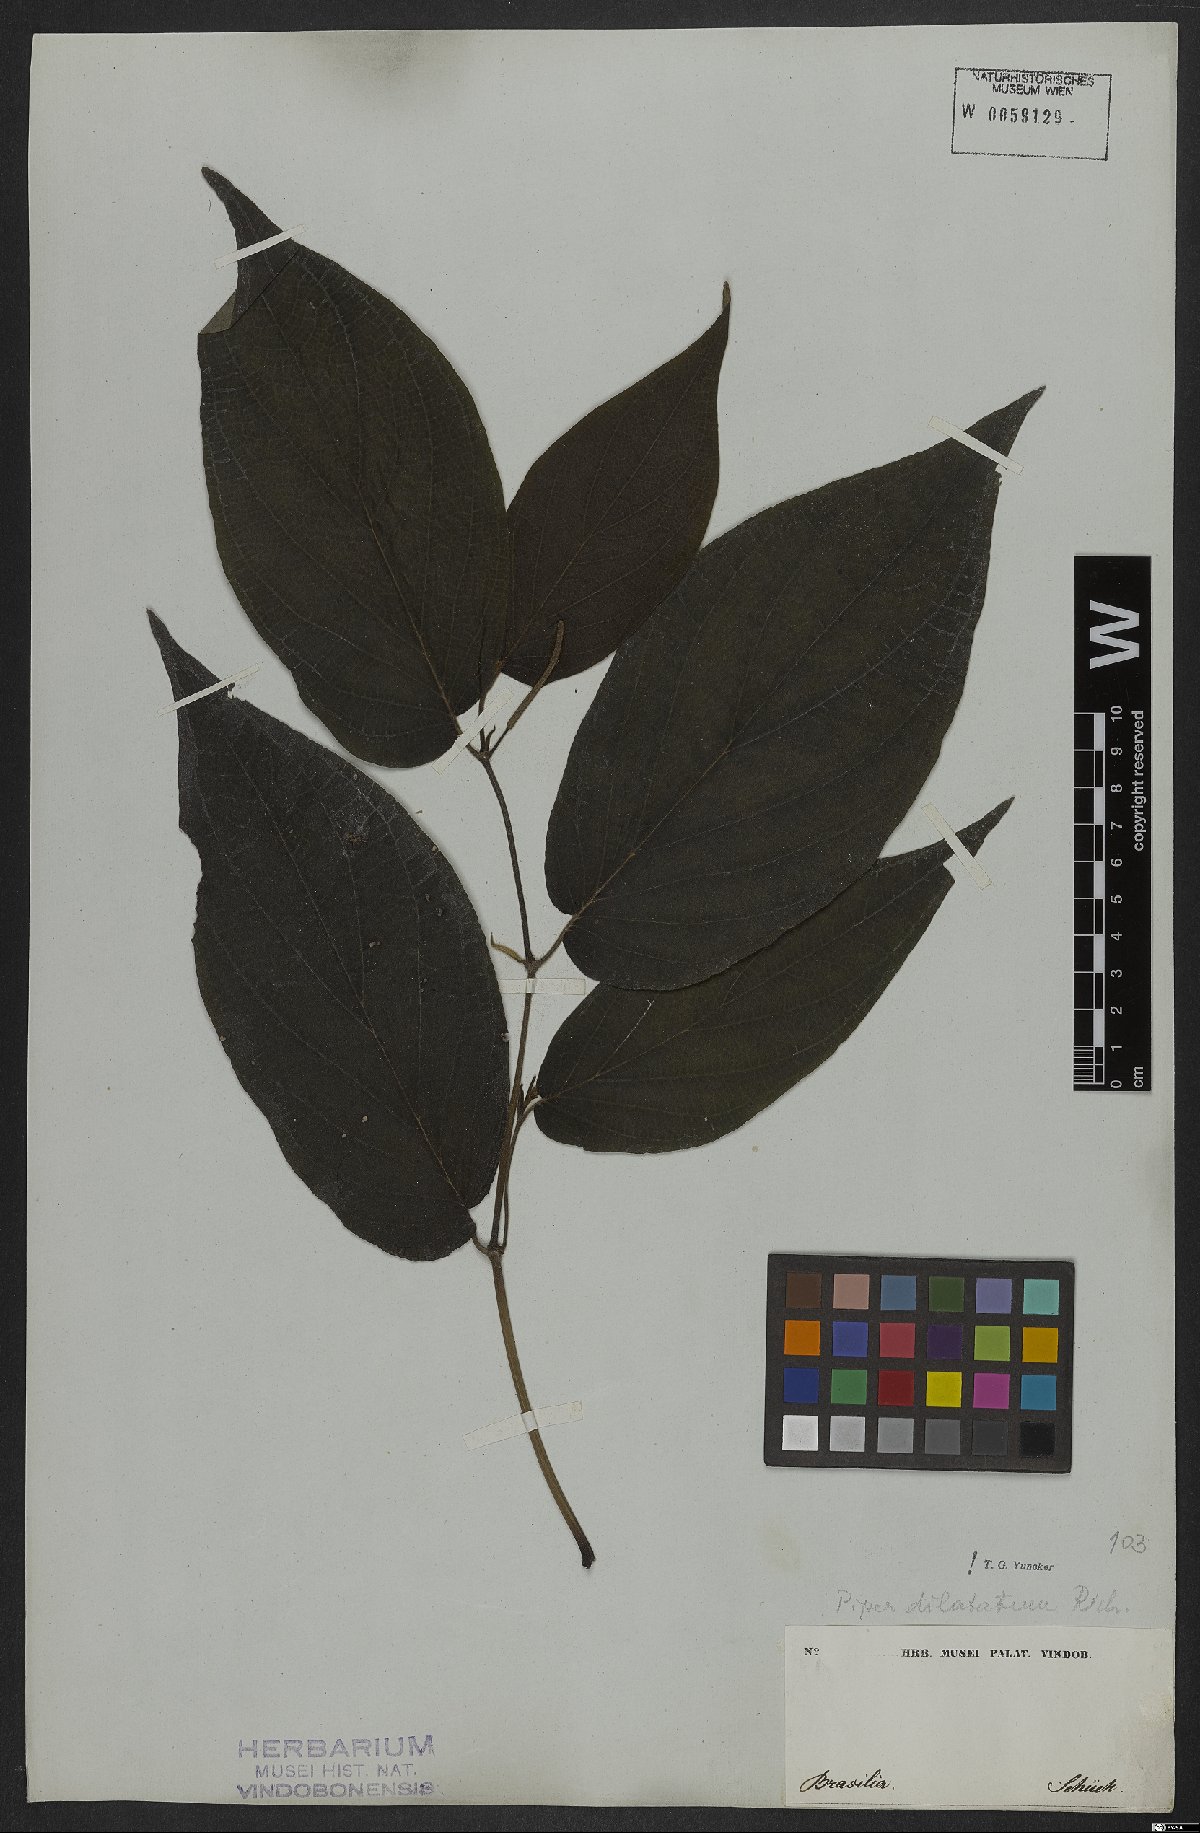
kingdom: Plantae
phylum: Tracheophyta
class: Magnoliopsida
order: Piperales
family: Piperaceae
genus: Piper
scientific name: Piper dilatatum
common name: Higuillo
